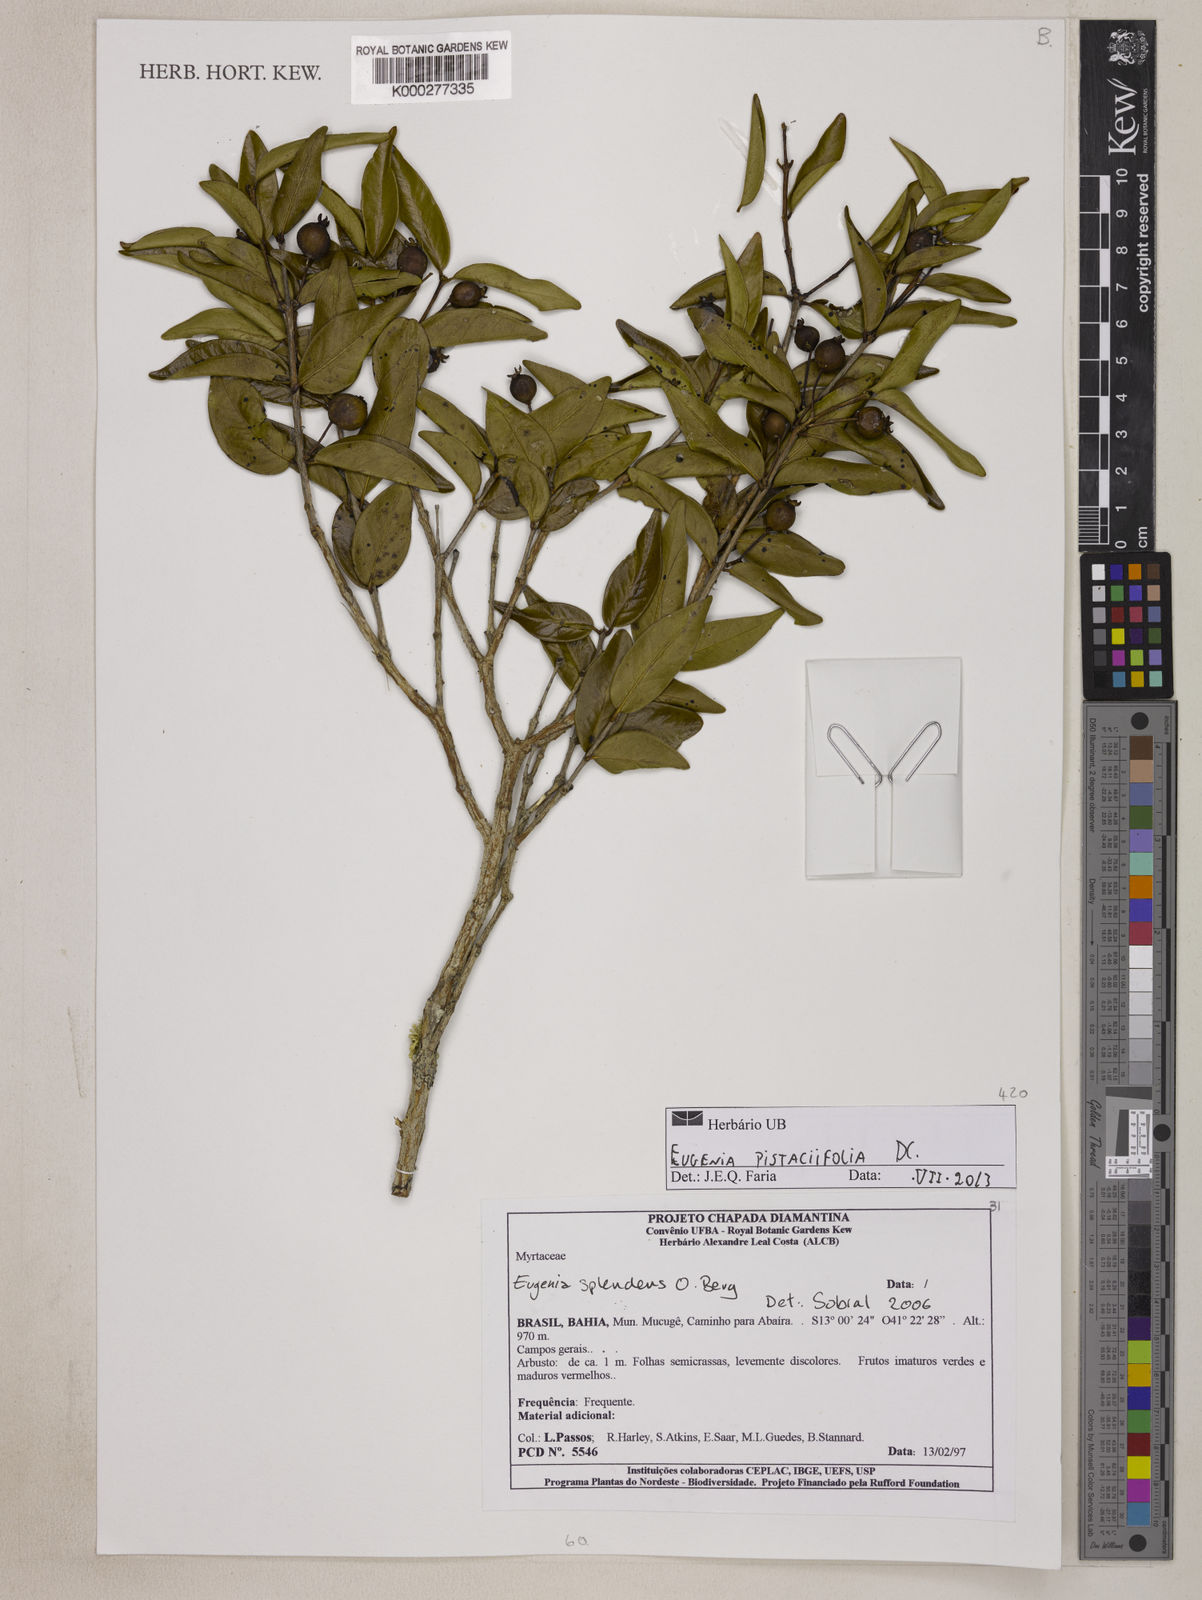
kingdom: Plantae
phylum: Tracheophyta
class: Magnoliopsida
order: Myrtales
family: Myrtaceae
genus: Eugenia
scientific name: Eugenia pistaciifolia
